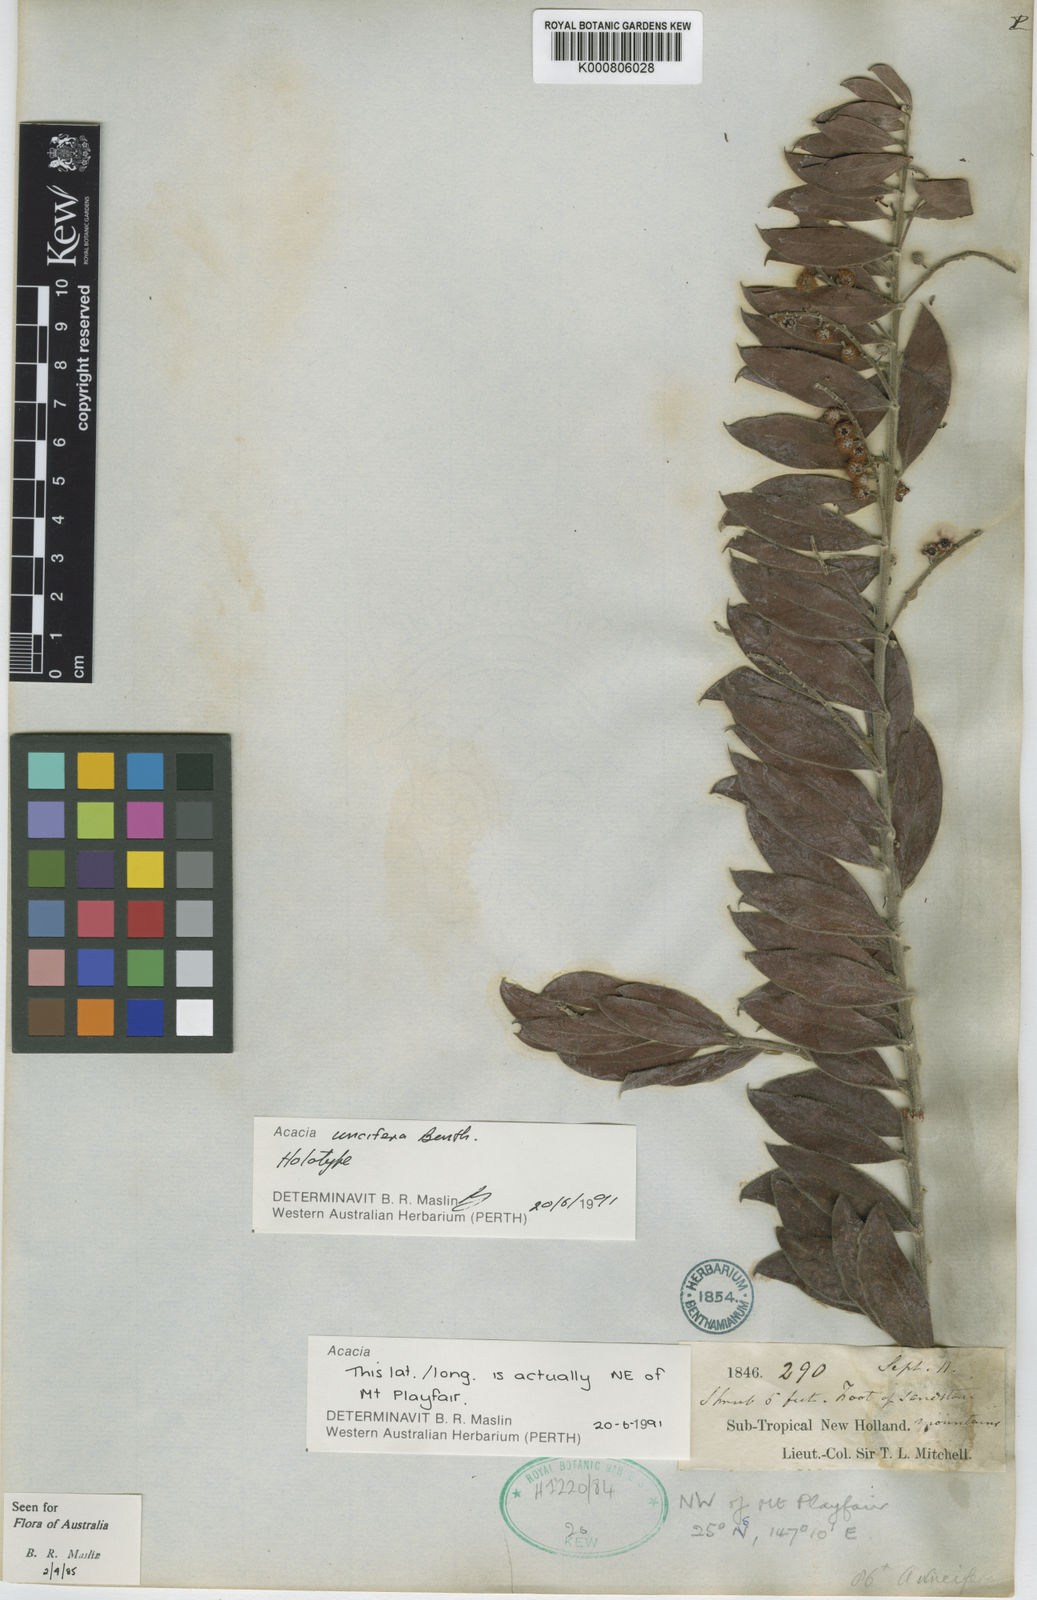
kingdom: Plantae
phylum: Tracheophyta
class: Magnoliopsida
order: Fabales
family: Fabaceae
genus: Acacia
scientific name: Acacia uncifera
